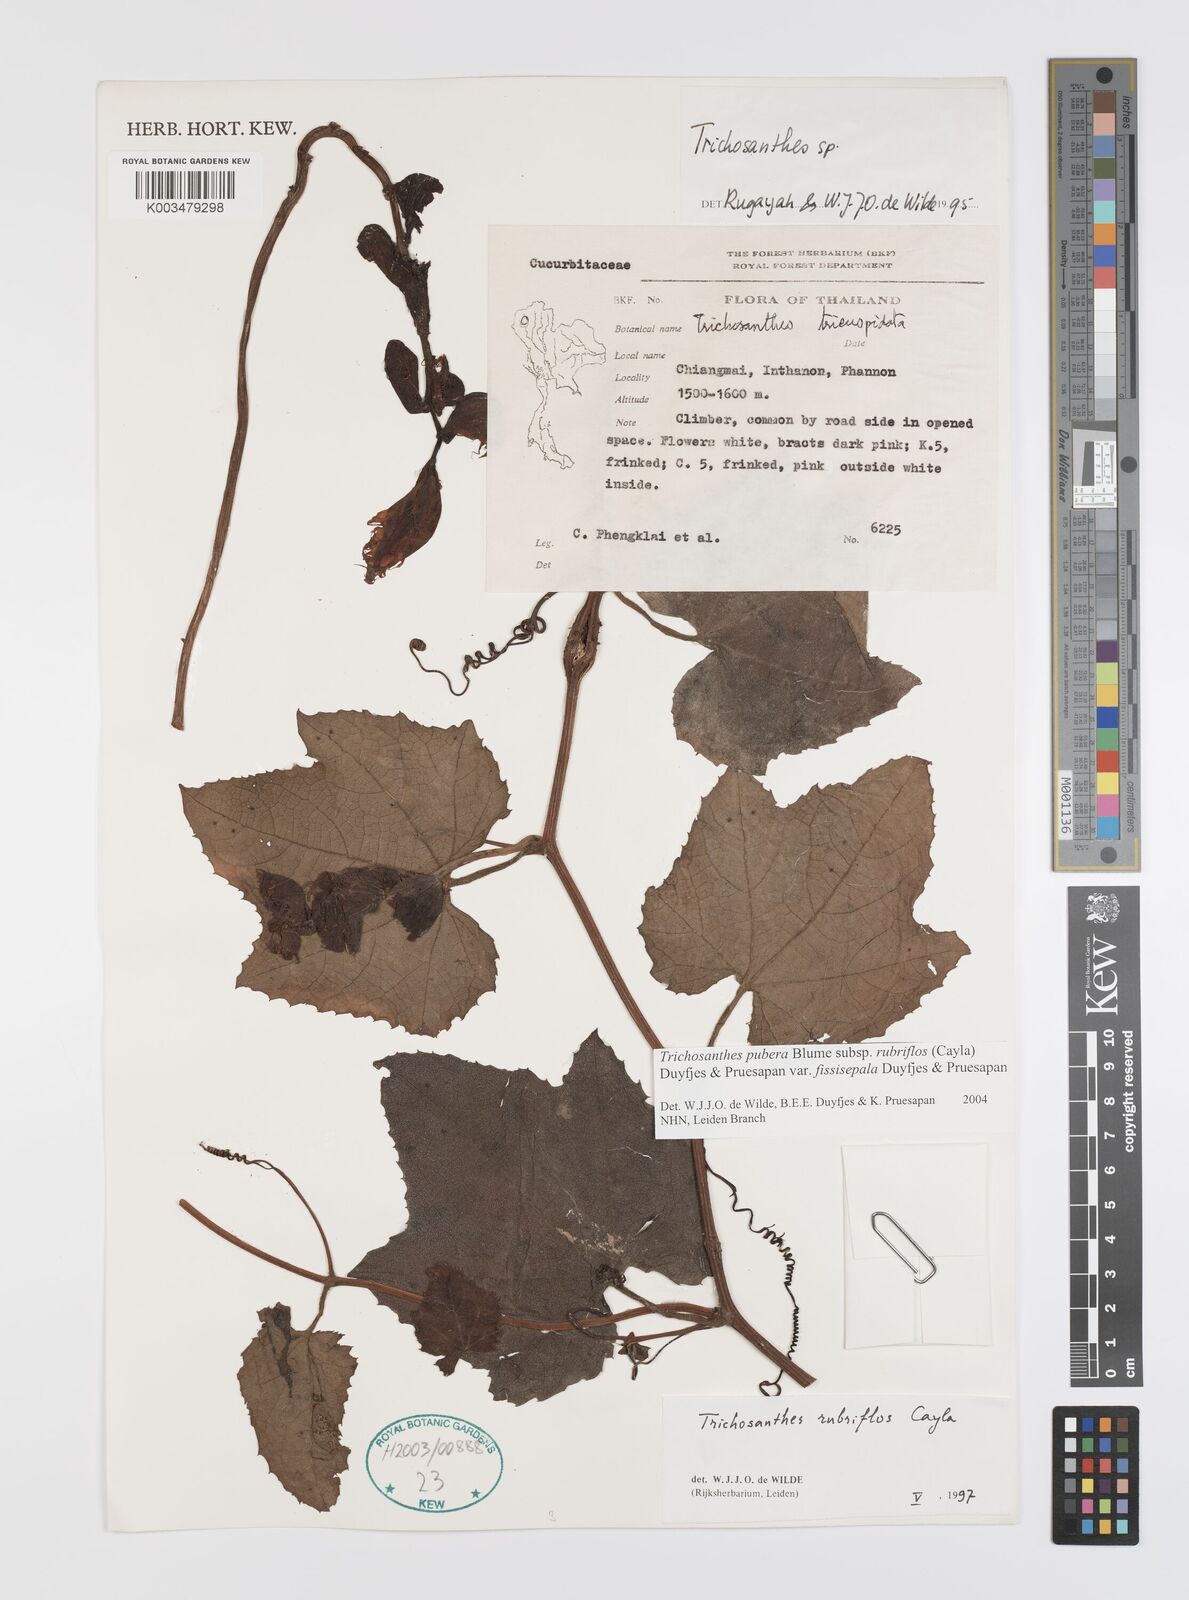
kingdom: Plantae
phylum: Tracheophyta
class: Magnoliopsida
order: Cucurbitales
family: Cucurbitaceae
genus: Trichosanthes
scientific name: Trichosanthes rubriflos
